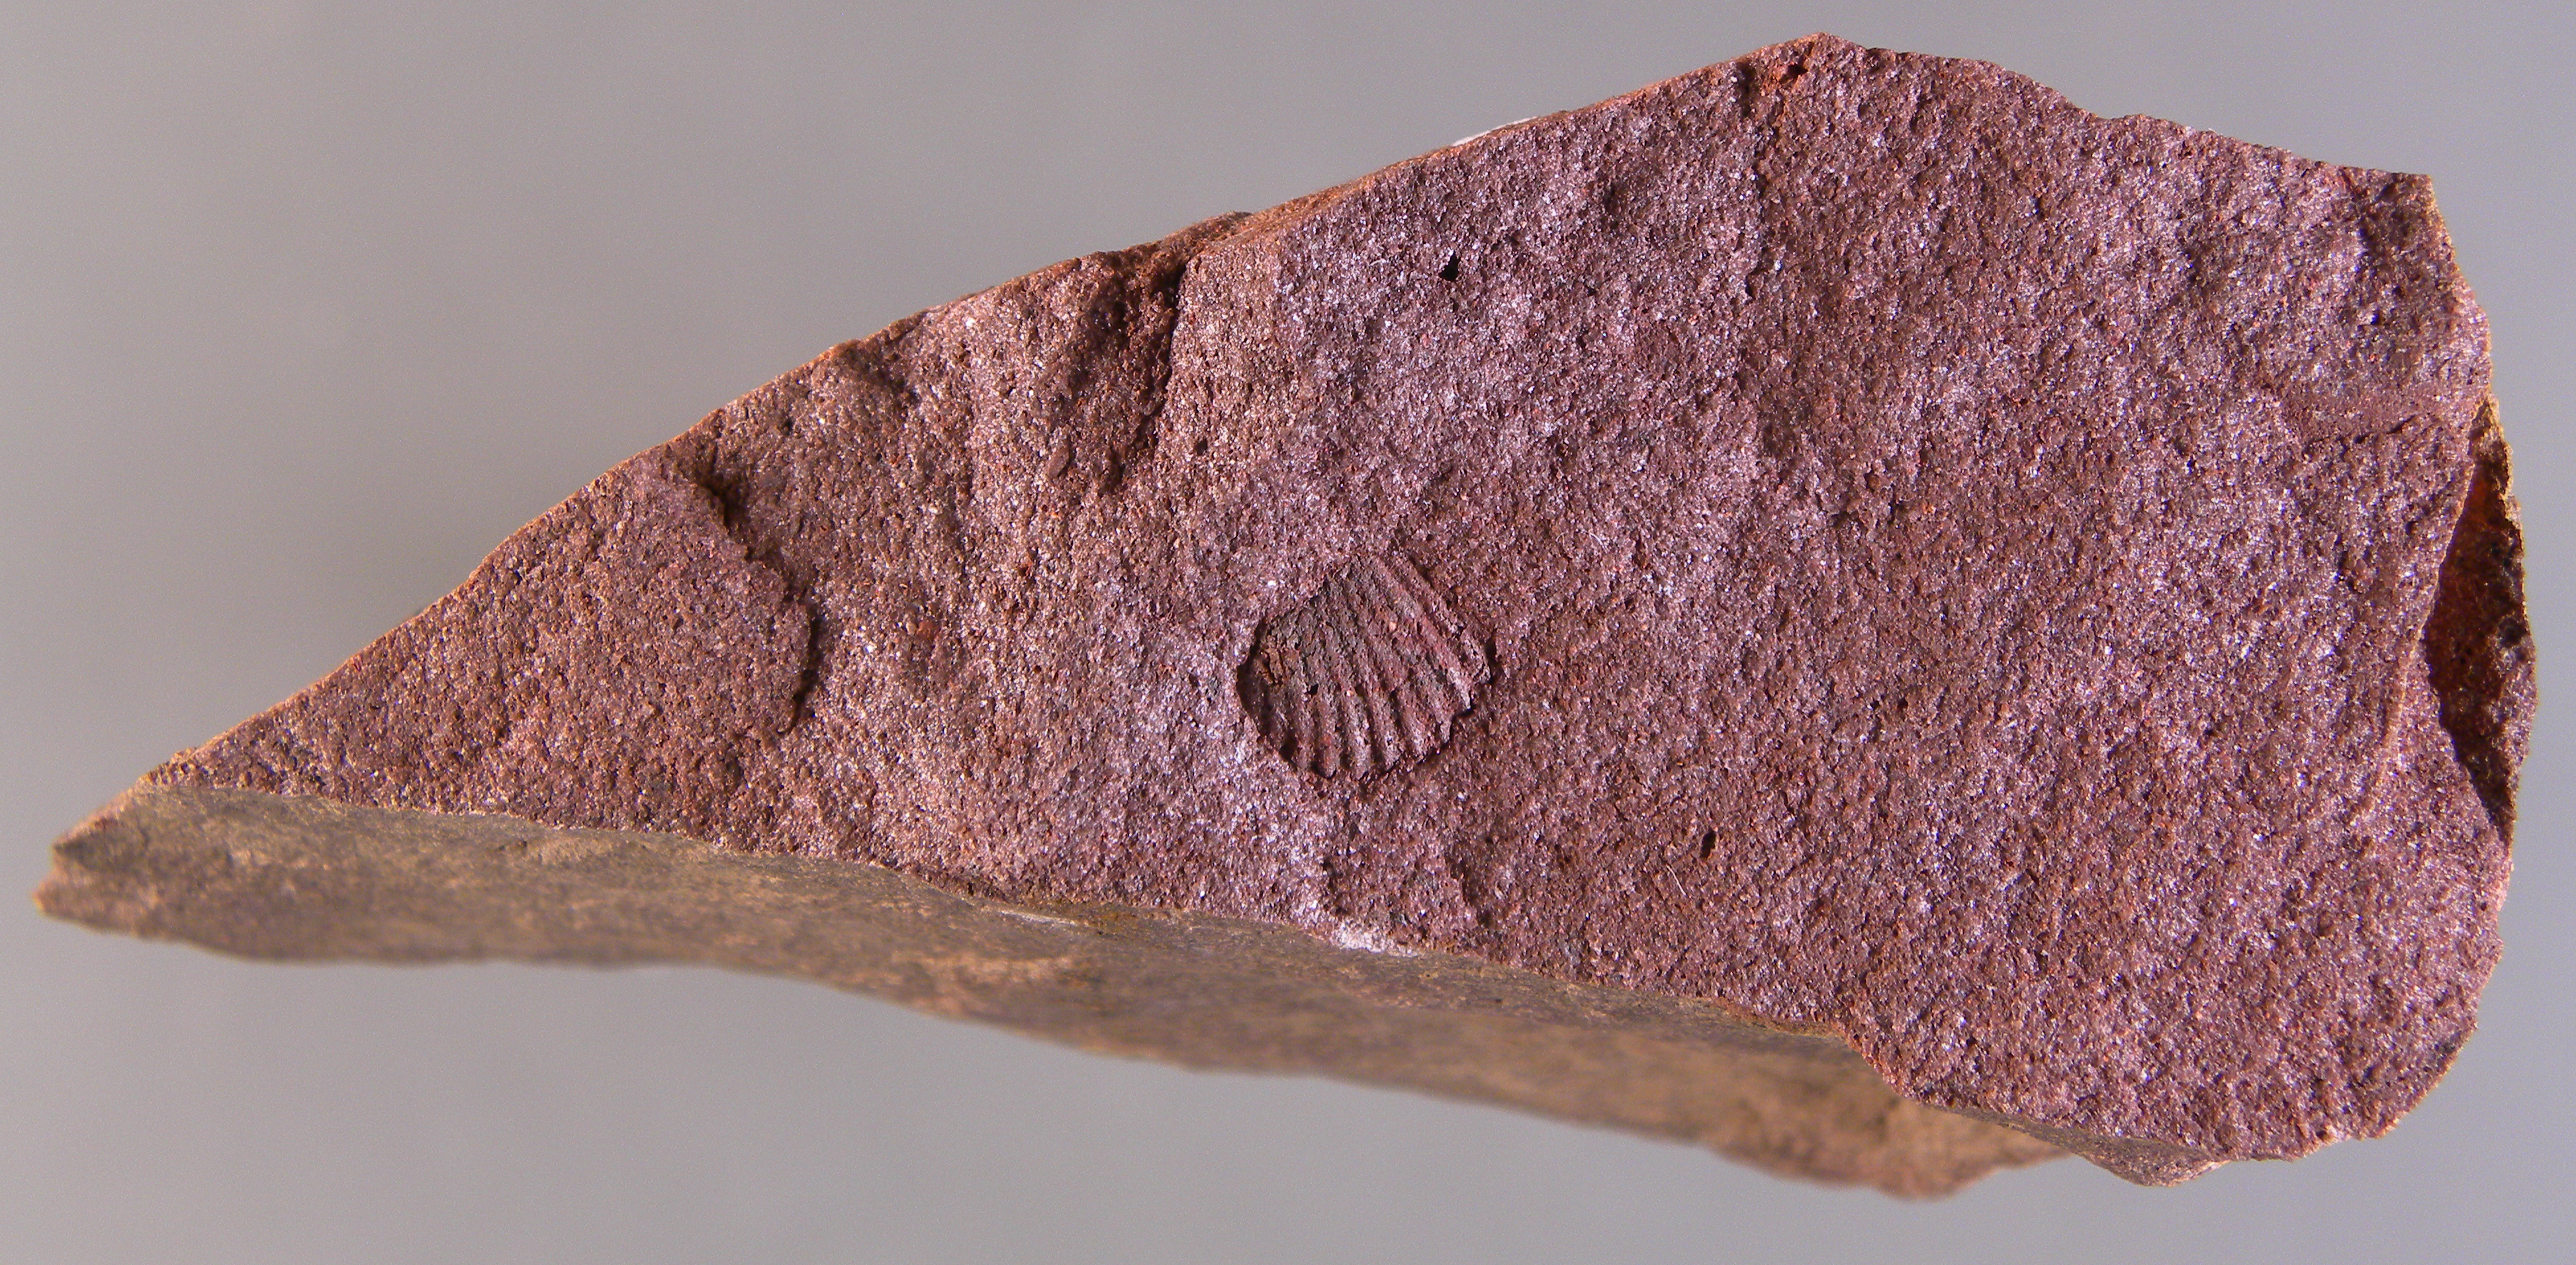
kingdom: Animalia
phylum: Arthropoda
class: Trilobita
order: Phacopida
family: Homalonotidae
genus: Digonus
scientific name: Digonus
